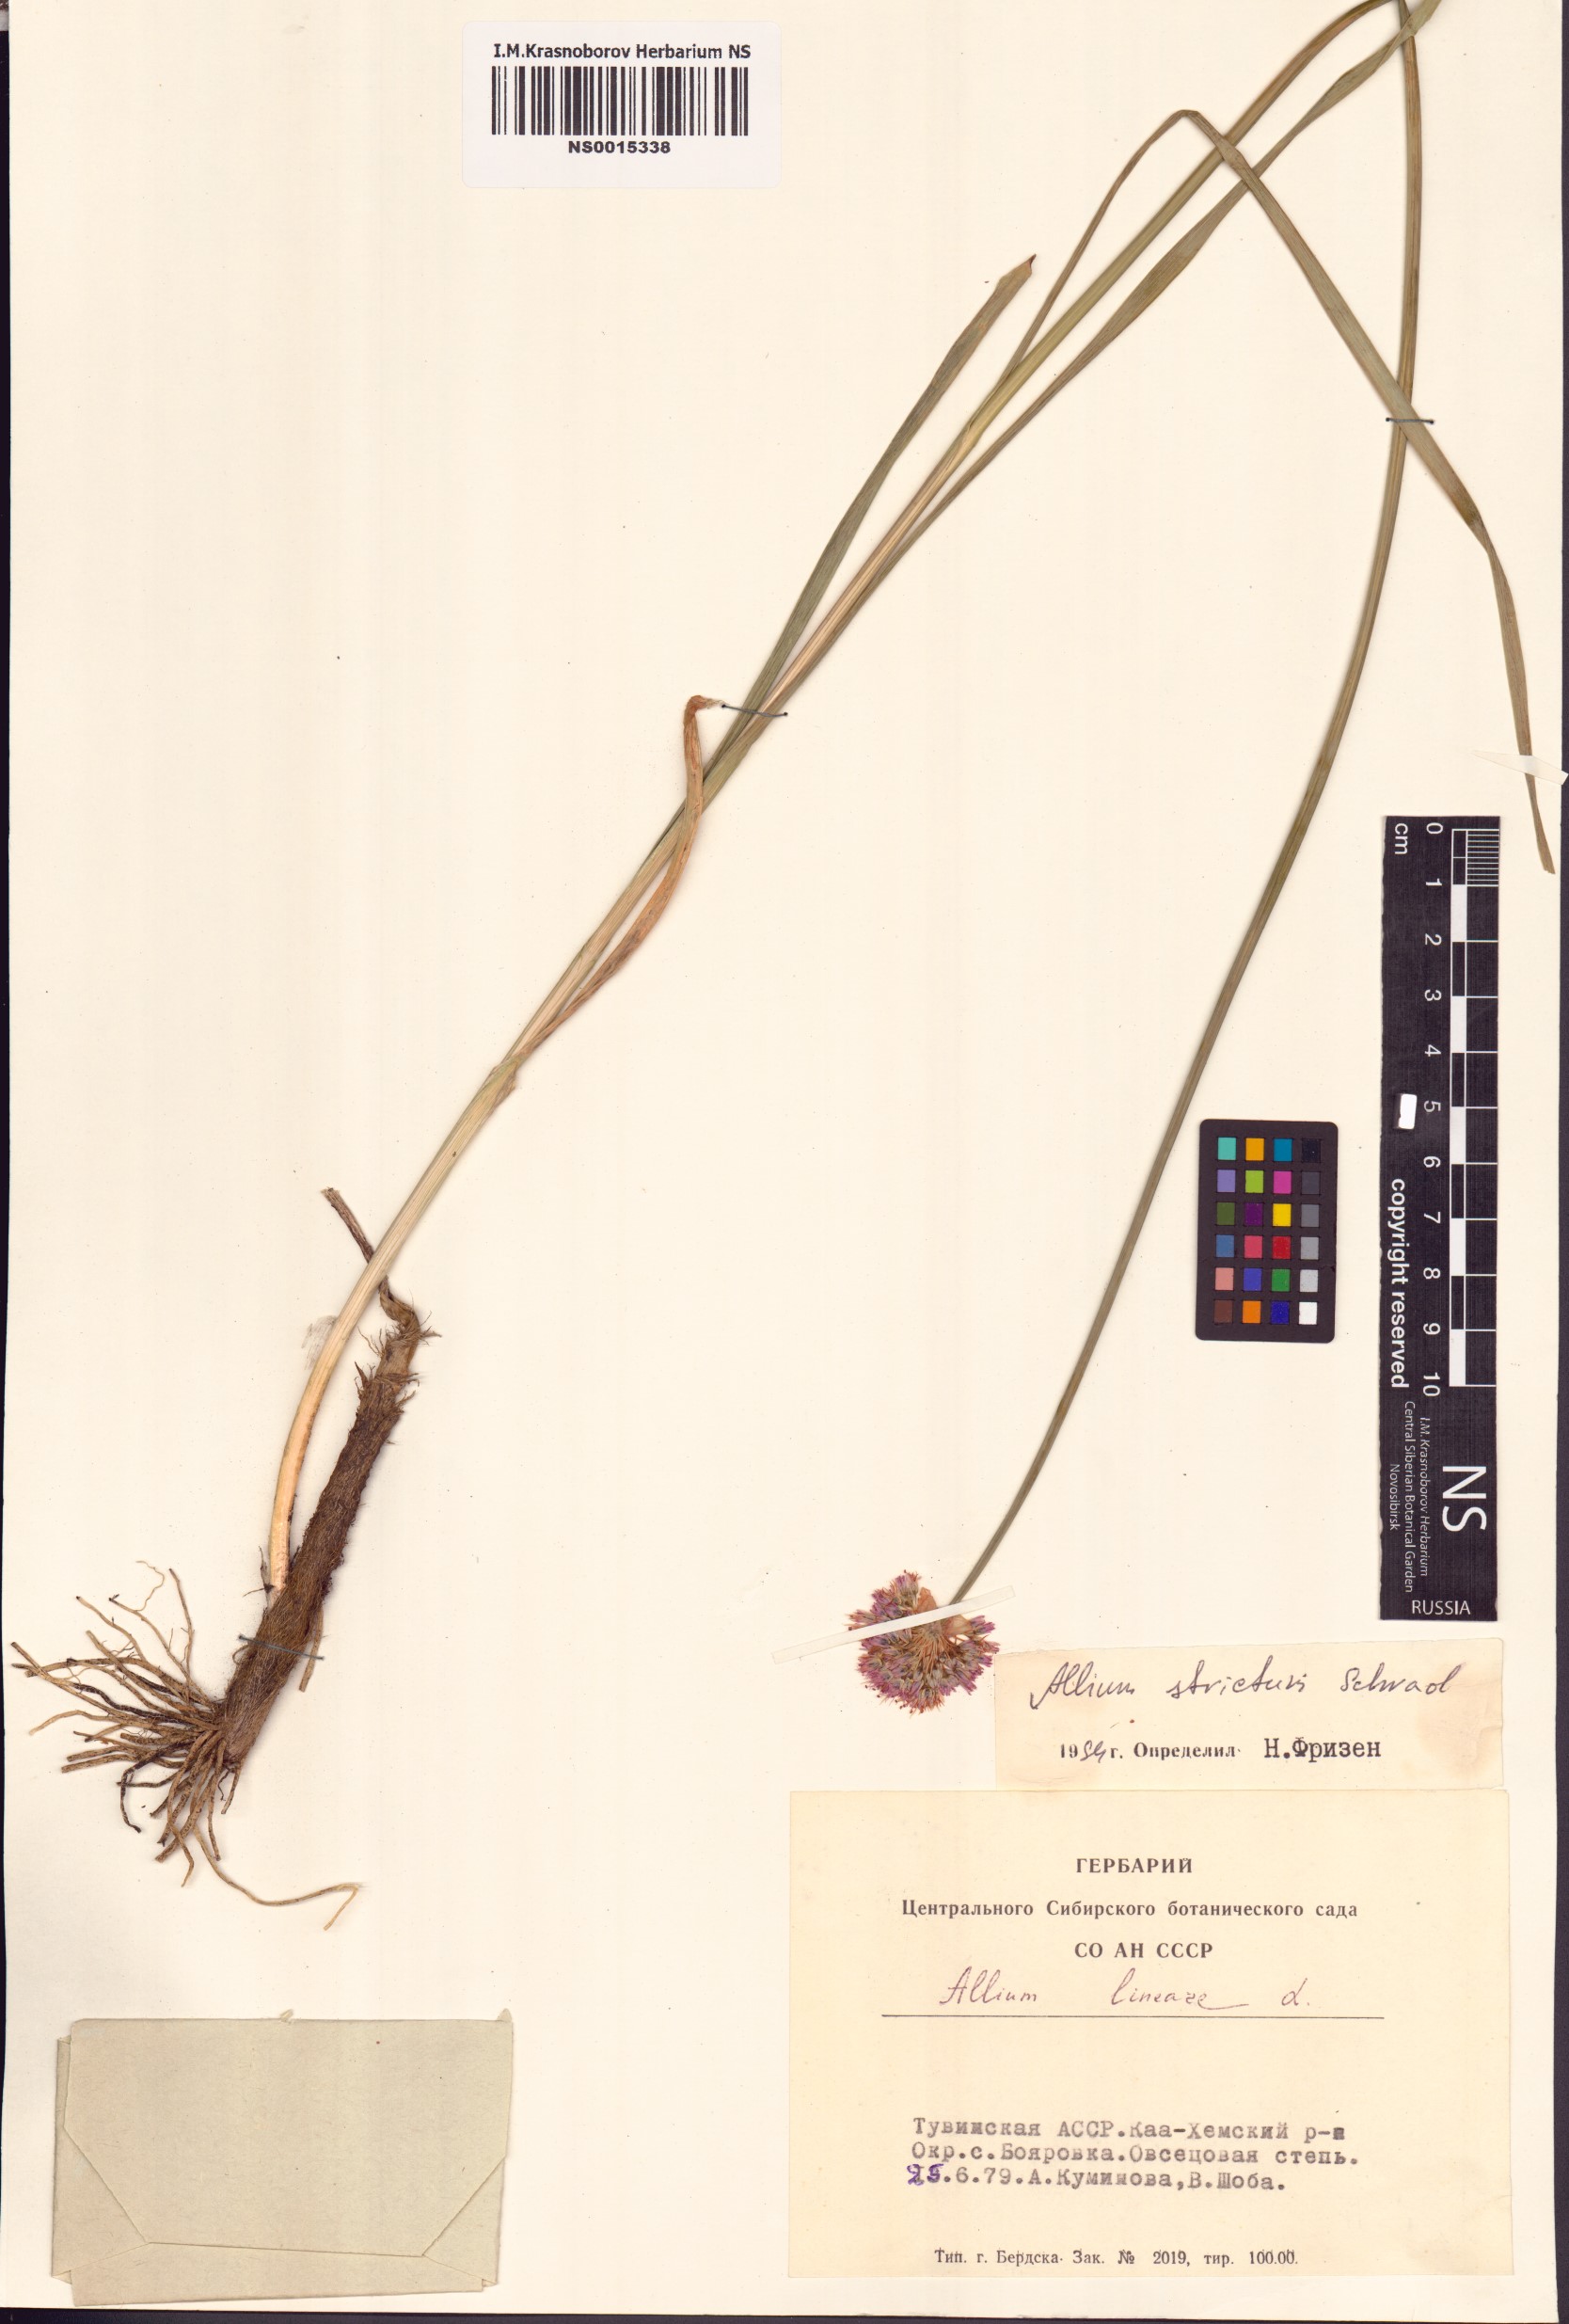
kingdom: Plantae
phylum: Tracheophyta
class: Liliopsida
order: Asparagales
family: Amaryllidaceae
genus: Allium
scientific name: Allium strictum
